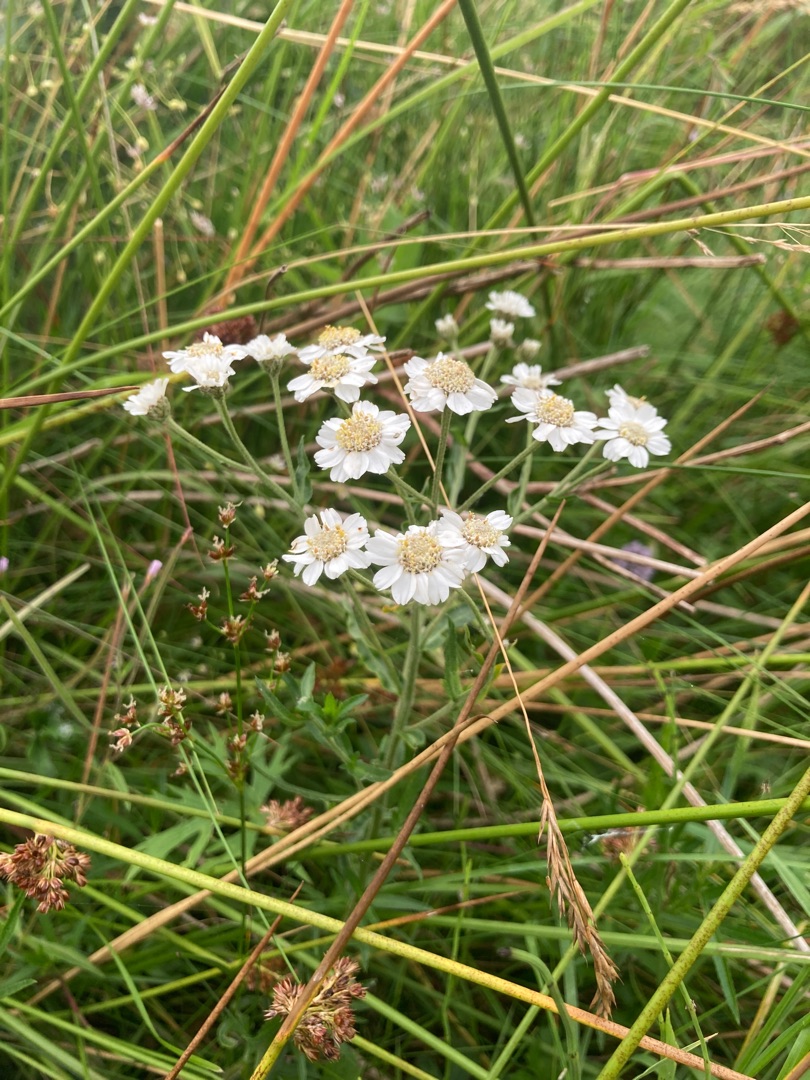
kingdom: Plantae
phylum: Tracheophyta
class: Magnoliopsida
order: Asterales
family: Asteraceae
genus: Achillea
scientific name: Achillea ptarmica
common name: Nyse-røllike
